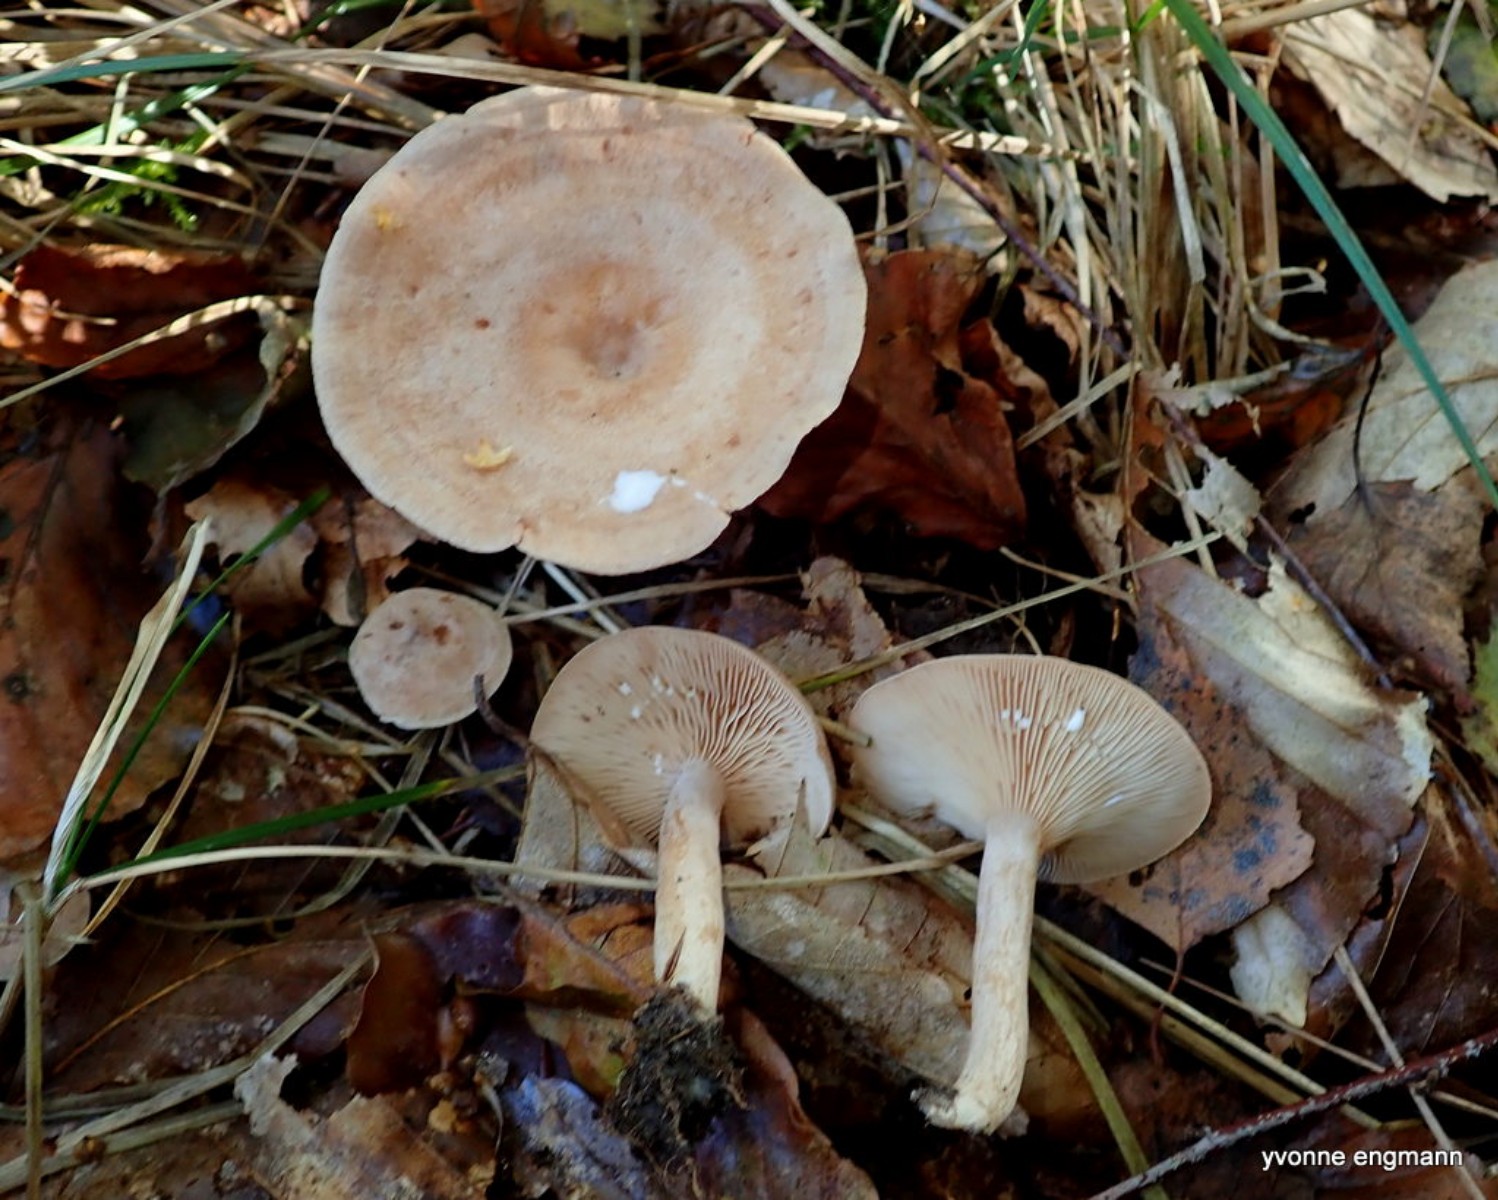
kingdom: Fungi
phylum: Basidiomycota
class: Agaricomycetes
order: Russulales
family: Russulaceae
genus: Lactarius
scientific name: Lactarius glyciosmus
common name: kokos-mælkehat
